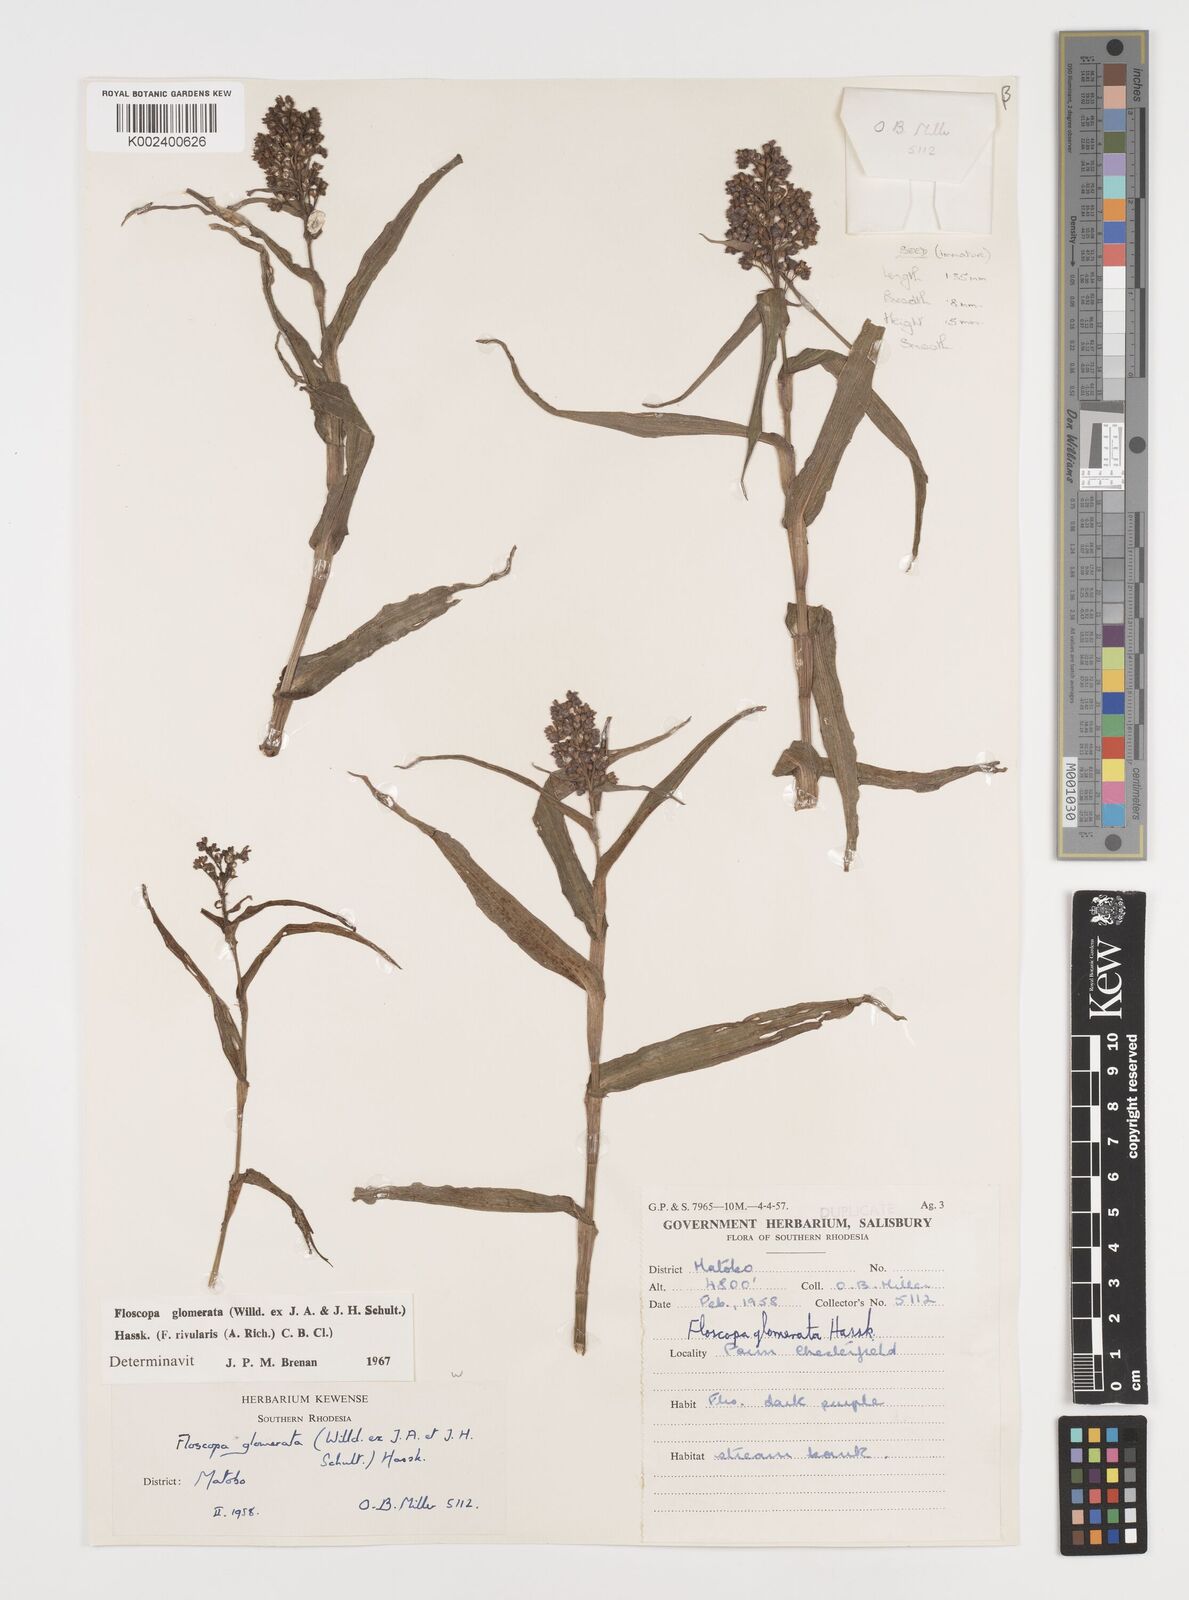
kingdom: Plantae
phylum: Tracheophyta
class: Liliopsida
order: Commelinales
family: Commelinaceae
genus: Floscopa
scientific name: Floscopa glomerata
